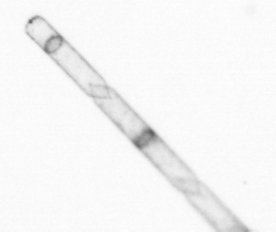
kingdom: Chromista
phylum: Ochrophyta
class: Bacillariophyceae
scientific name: Bacillariophyceae
